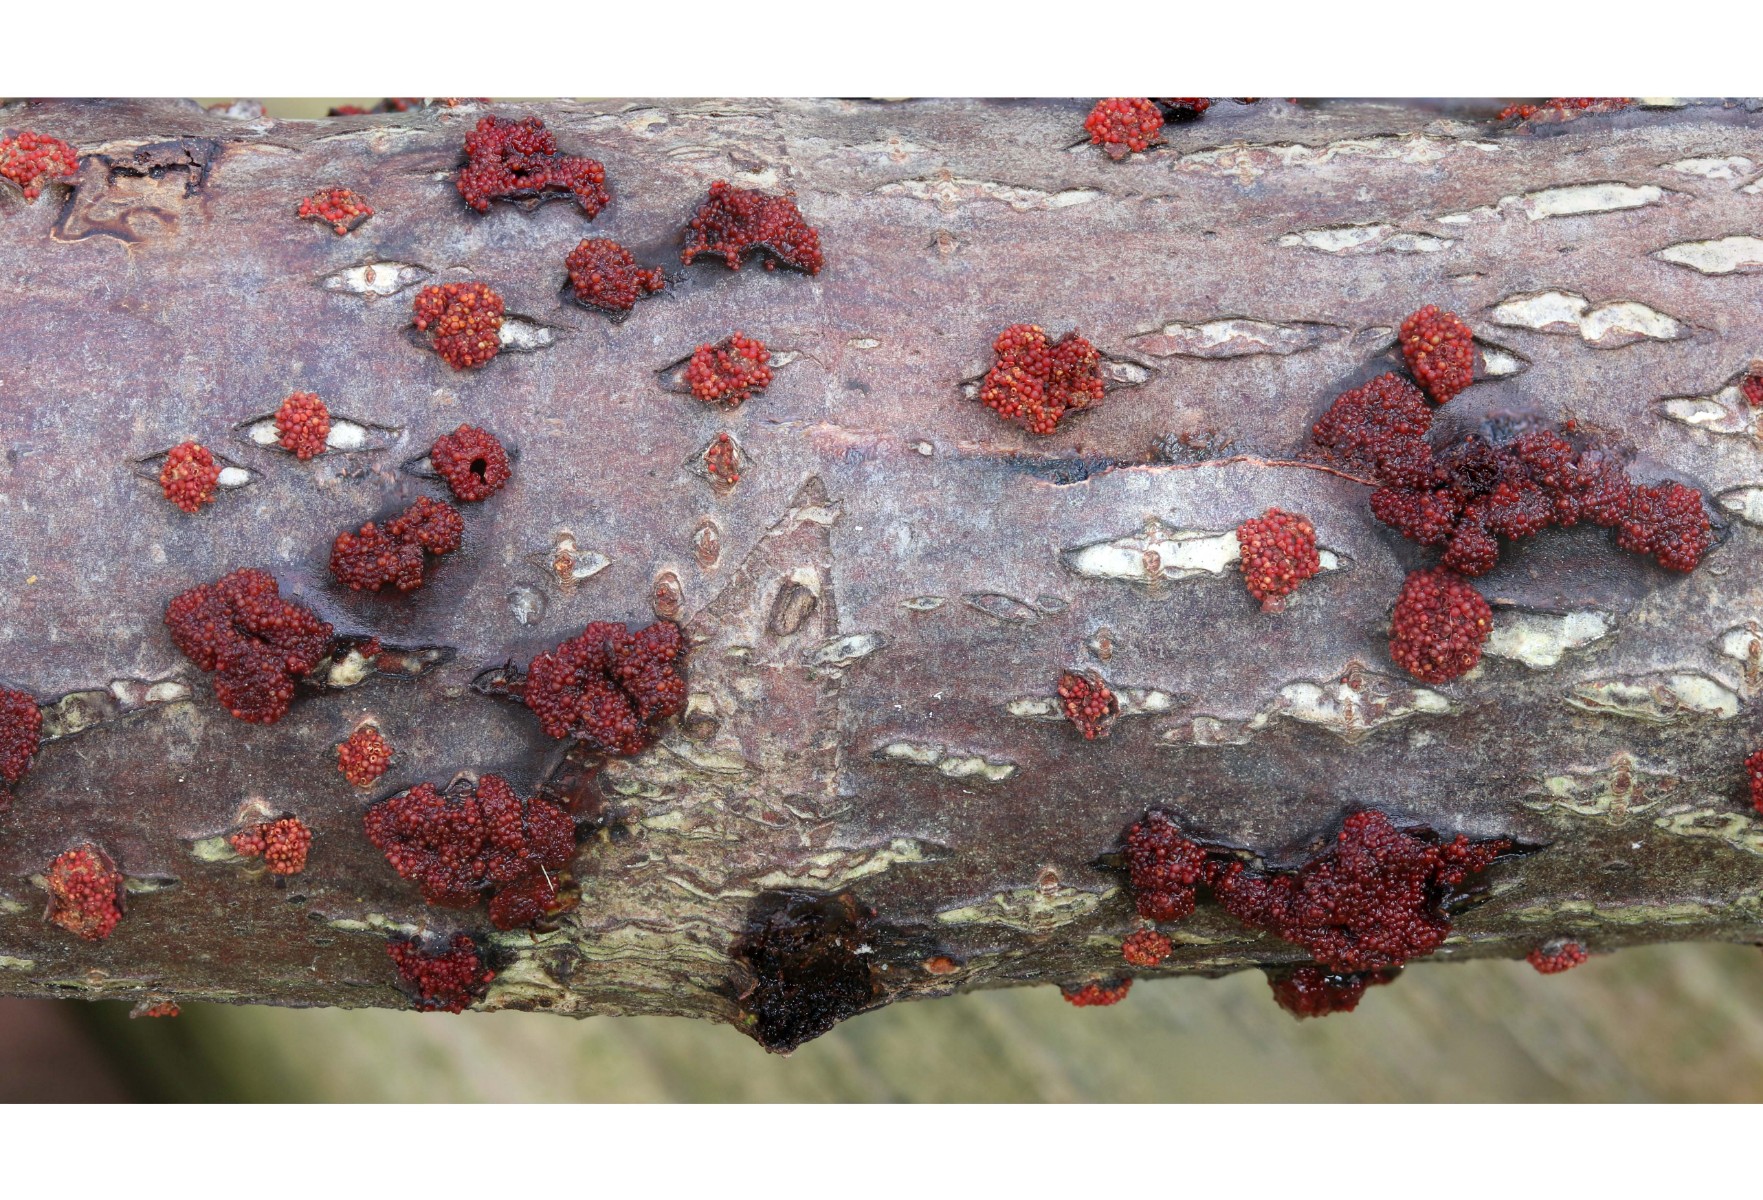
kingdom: Fungi
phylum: Ascomycota
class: Sordariomycetes
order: Hypocreales
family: Nectriaceae
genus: Neonectria
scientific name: Neonectria coccinea
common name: bøgebark-cinnobersvamp
